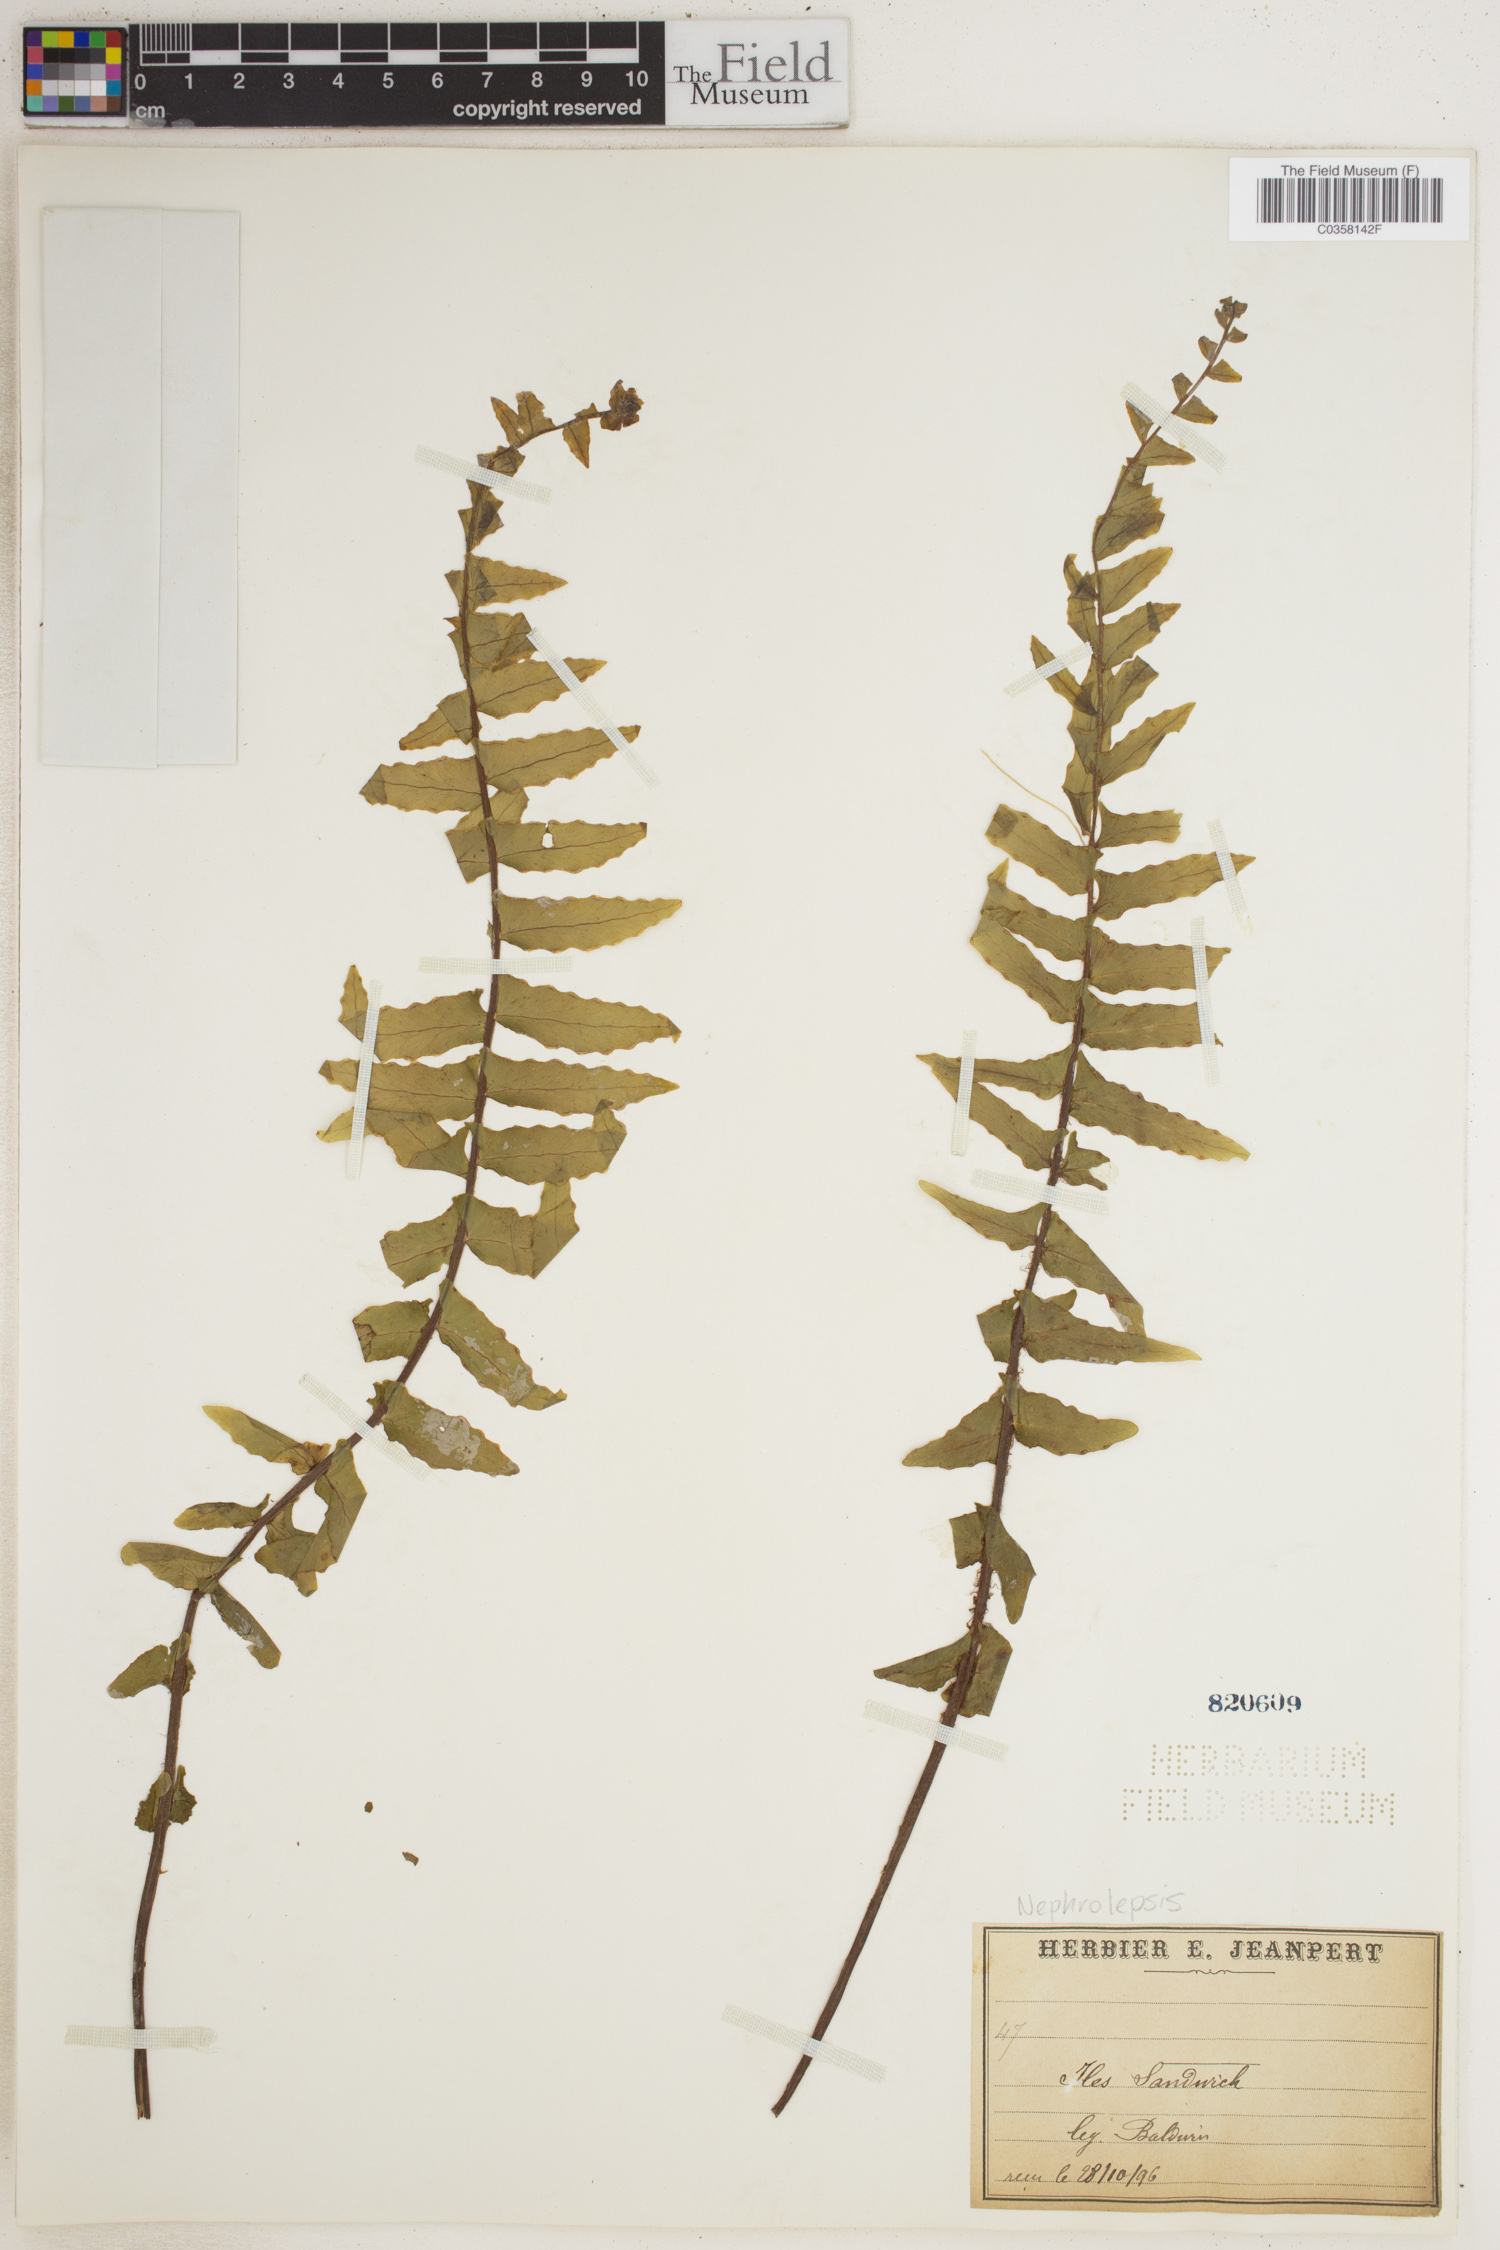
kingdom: Plantae
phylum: Tracheophyta
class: Polypodiopsida
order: Polypodiales
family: Nephrolepidaceae
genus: Nephrolepis
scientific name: Nephrolepis
